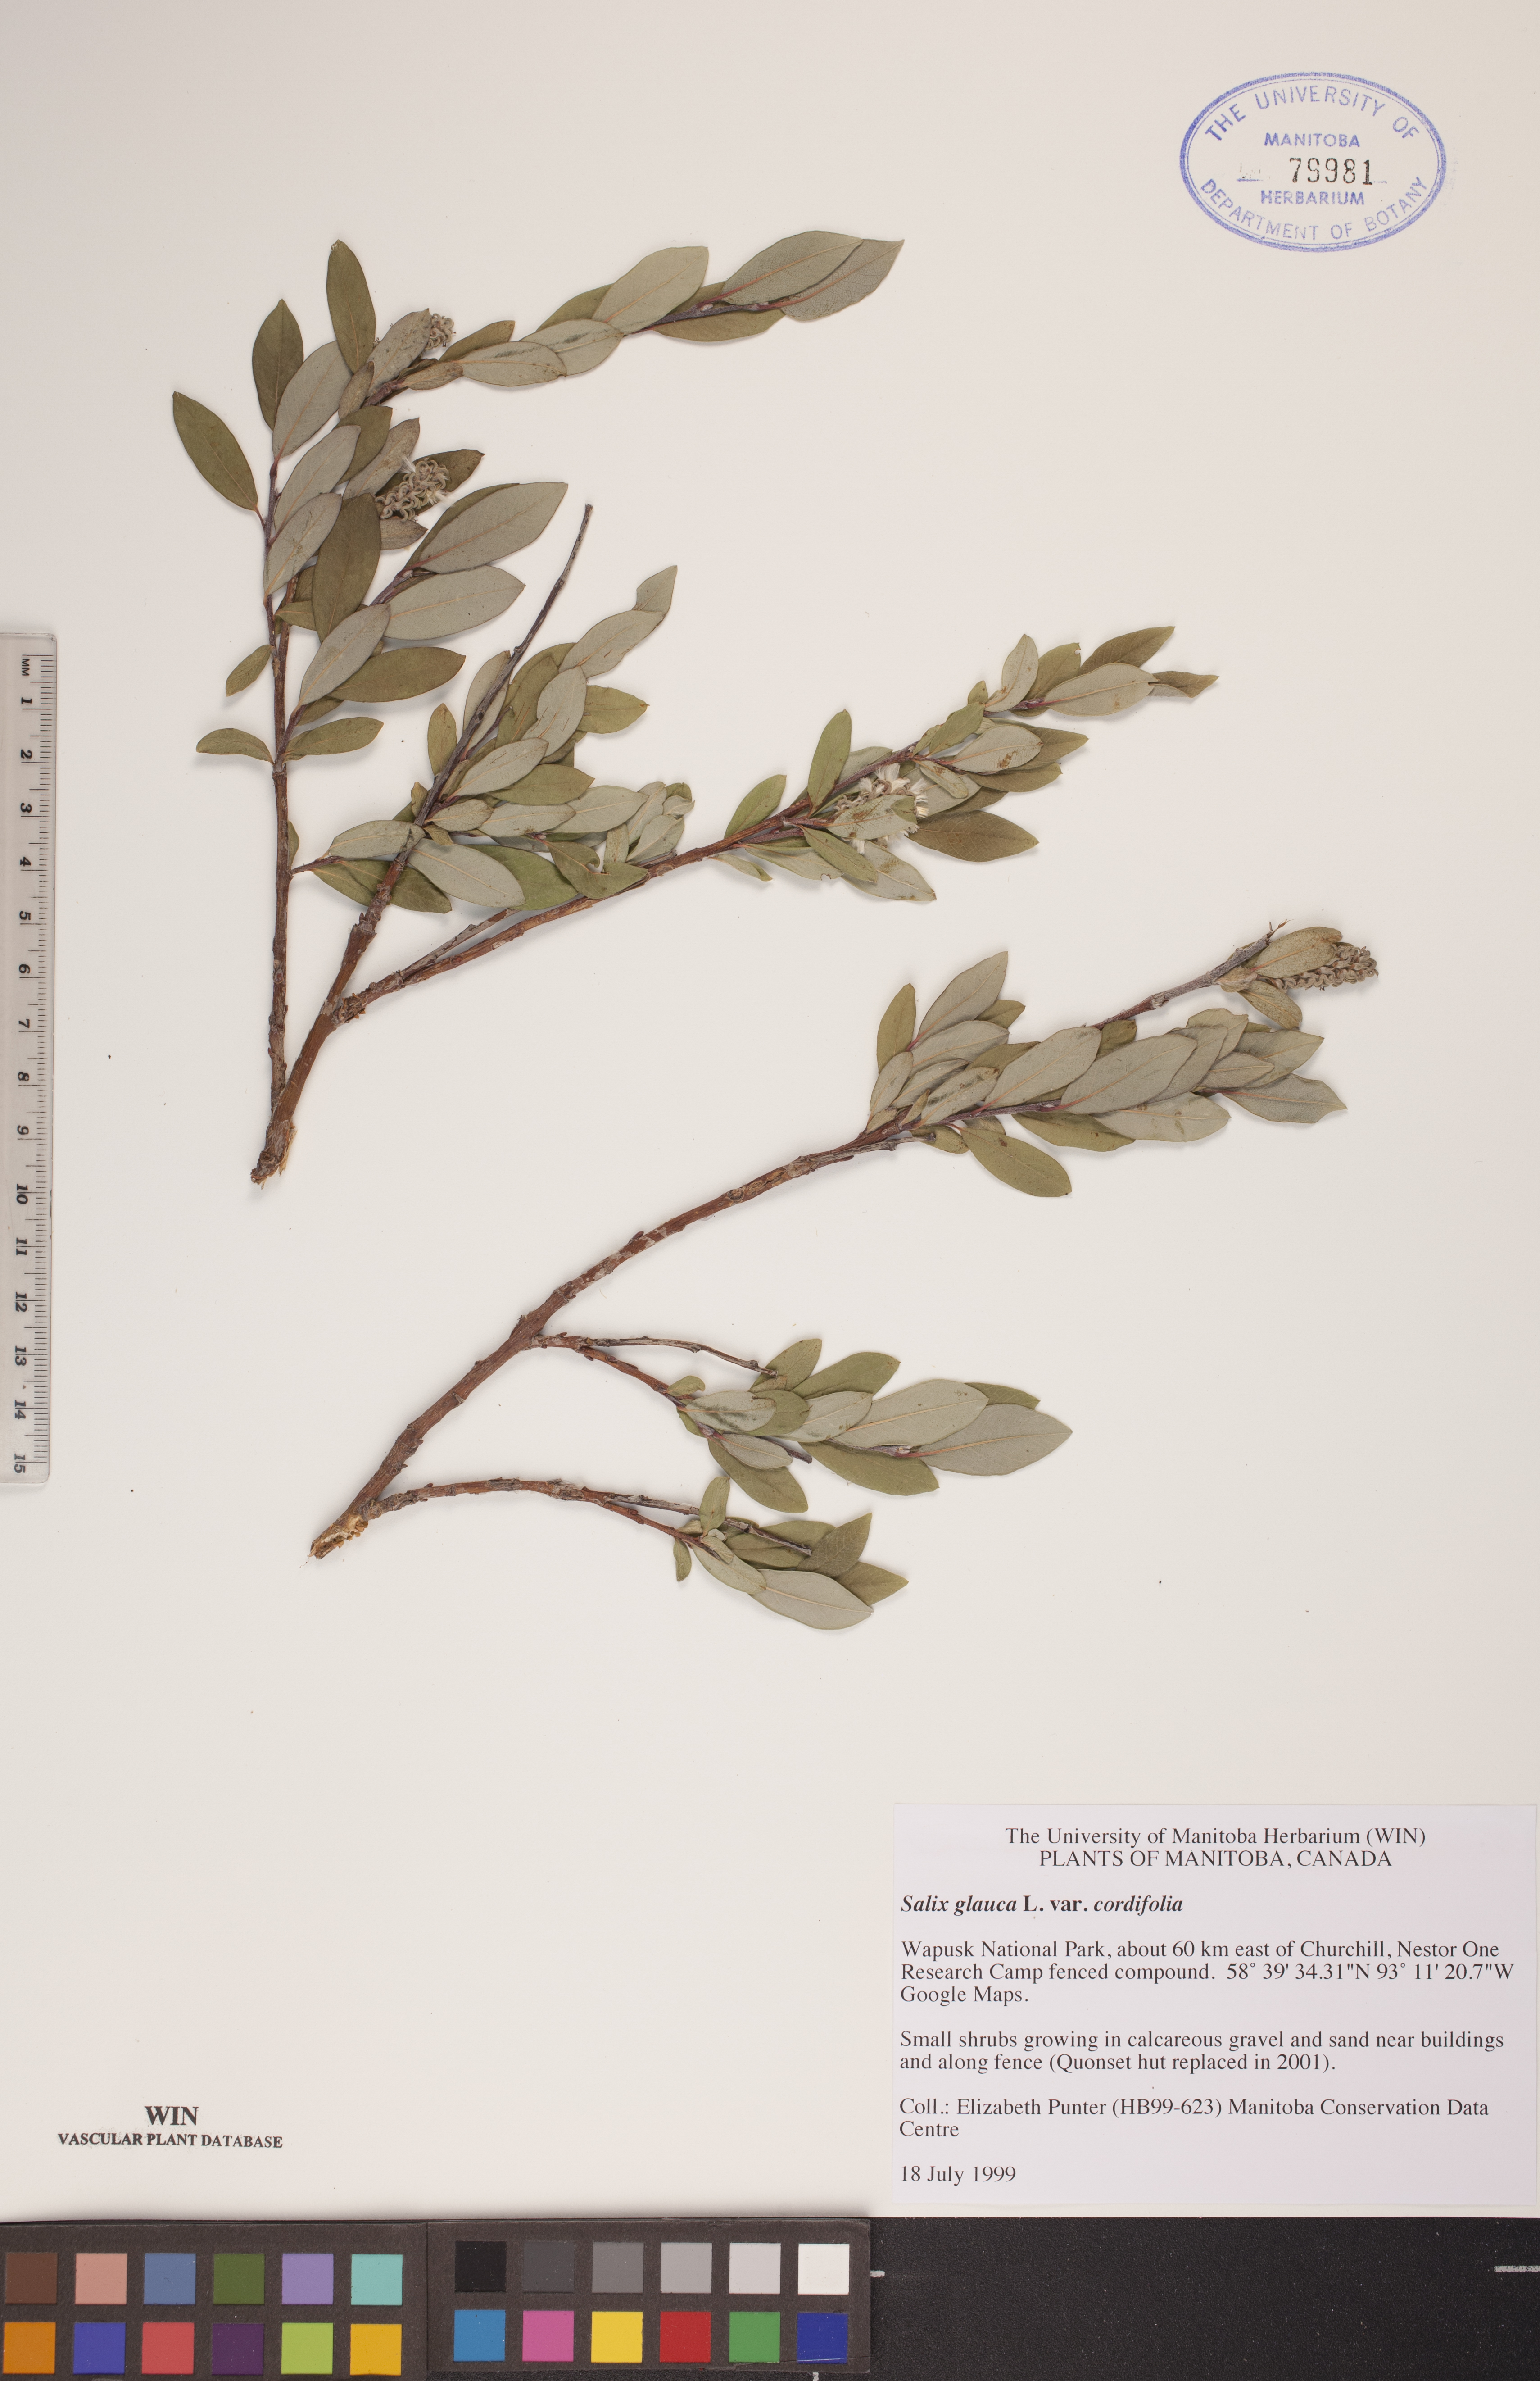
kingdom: Plantae
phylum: Tracheophyta
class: Magnoliopsida
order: Malpighiales
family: Salicaceae
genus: Salix
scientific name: Salix glauca
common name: Glaucous willow
